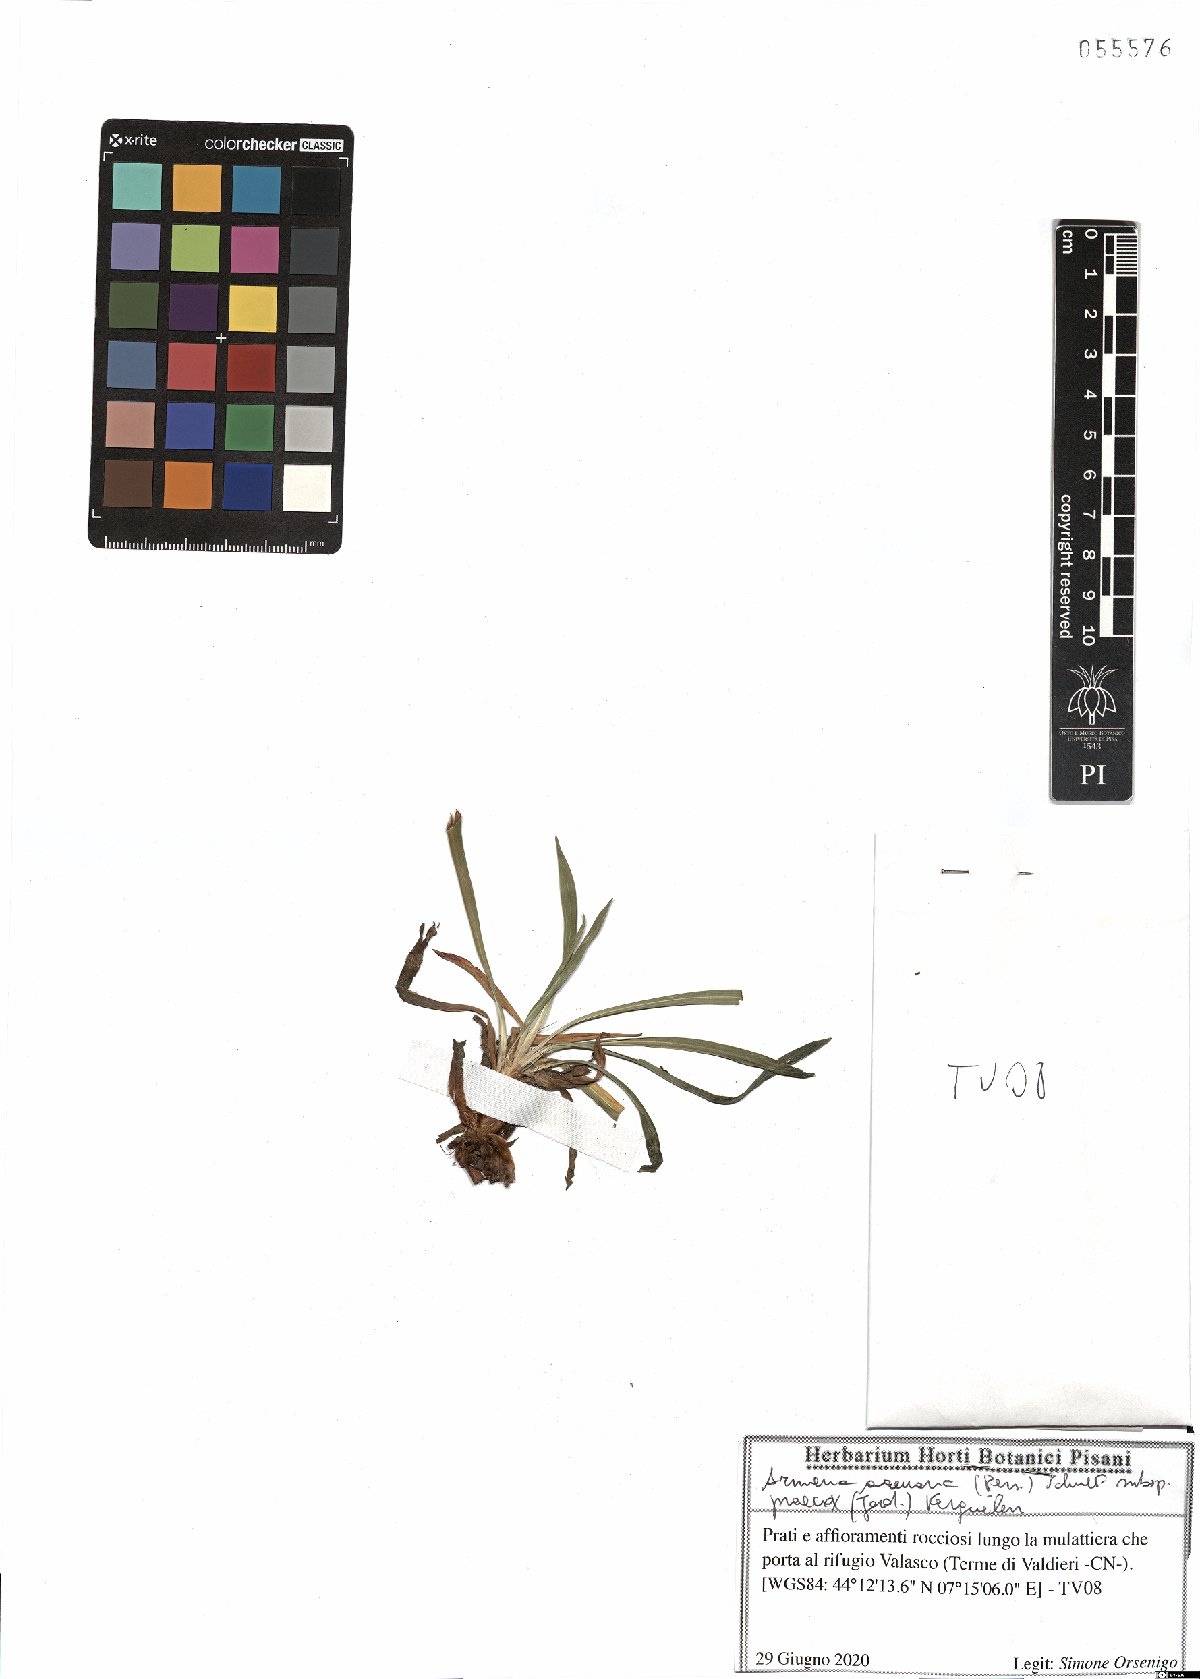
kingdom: Plantae
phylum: Tracheophyta
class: Magnoliopsida
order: Caryophyllales
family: Plumbaginaceae
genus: Armeria
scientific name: Armeria arenaria
